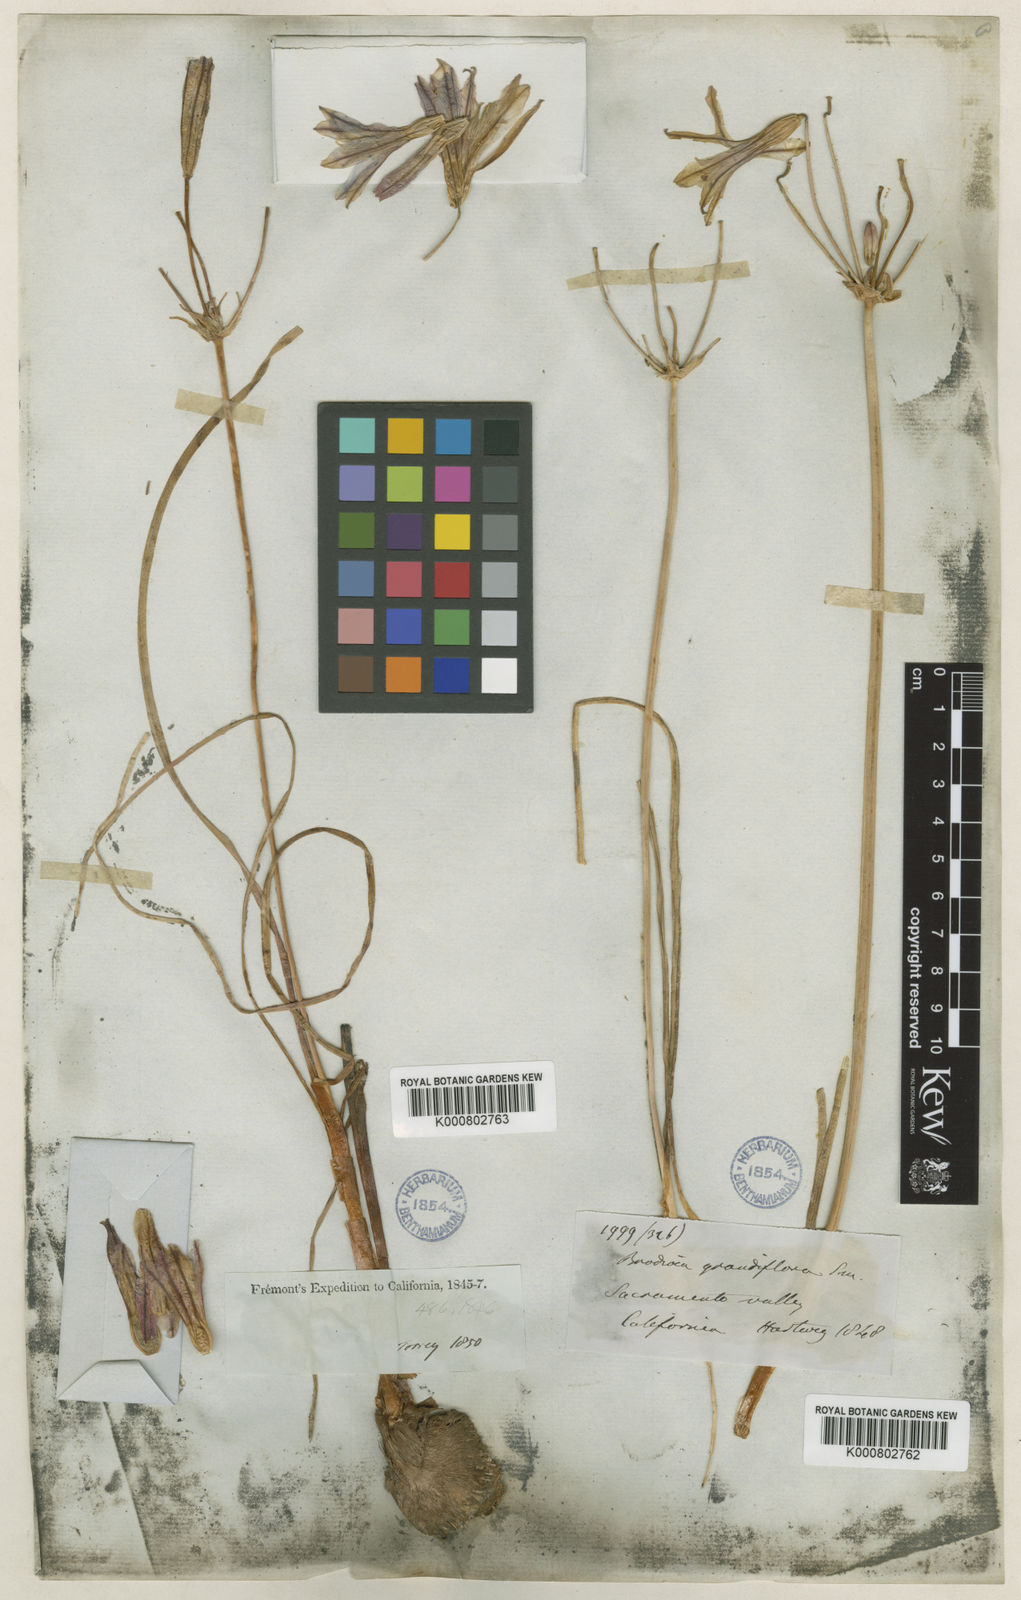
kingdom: Plantae
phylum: Tracheophyta
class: Liliopsida
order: Asparagales
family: Asparagaceae
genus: Brodiaea
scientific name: Brodiaea
